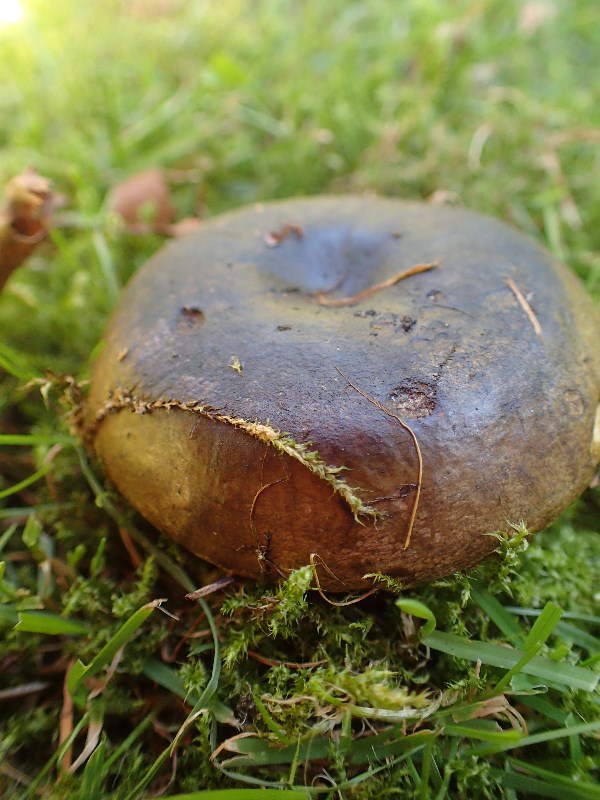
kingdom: Fungi
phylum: Basidiomycota
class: Agaricomycetes
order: Russulales
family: Russulaceae
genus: Lactarius
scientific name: Lactarius necator
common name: manddraber-mælkehat
